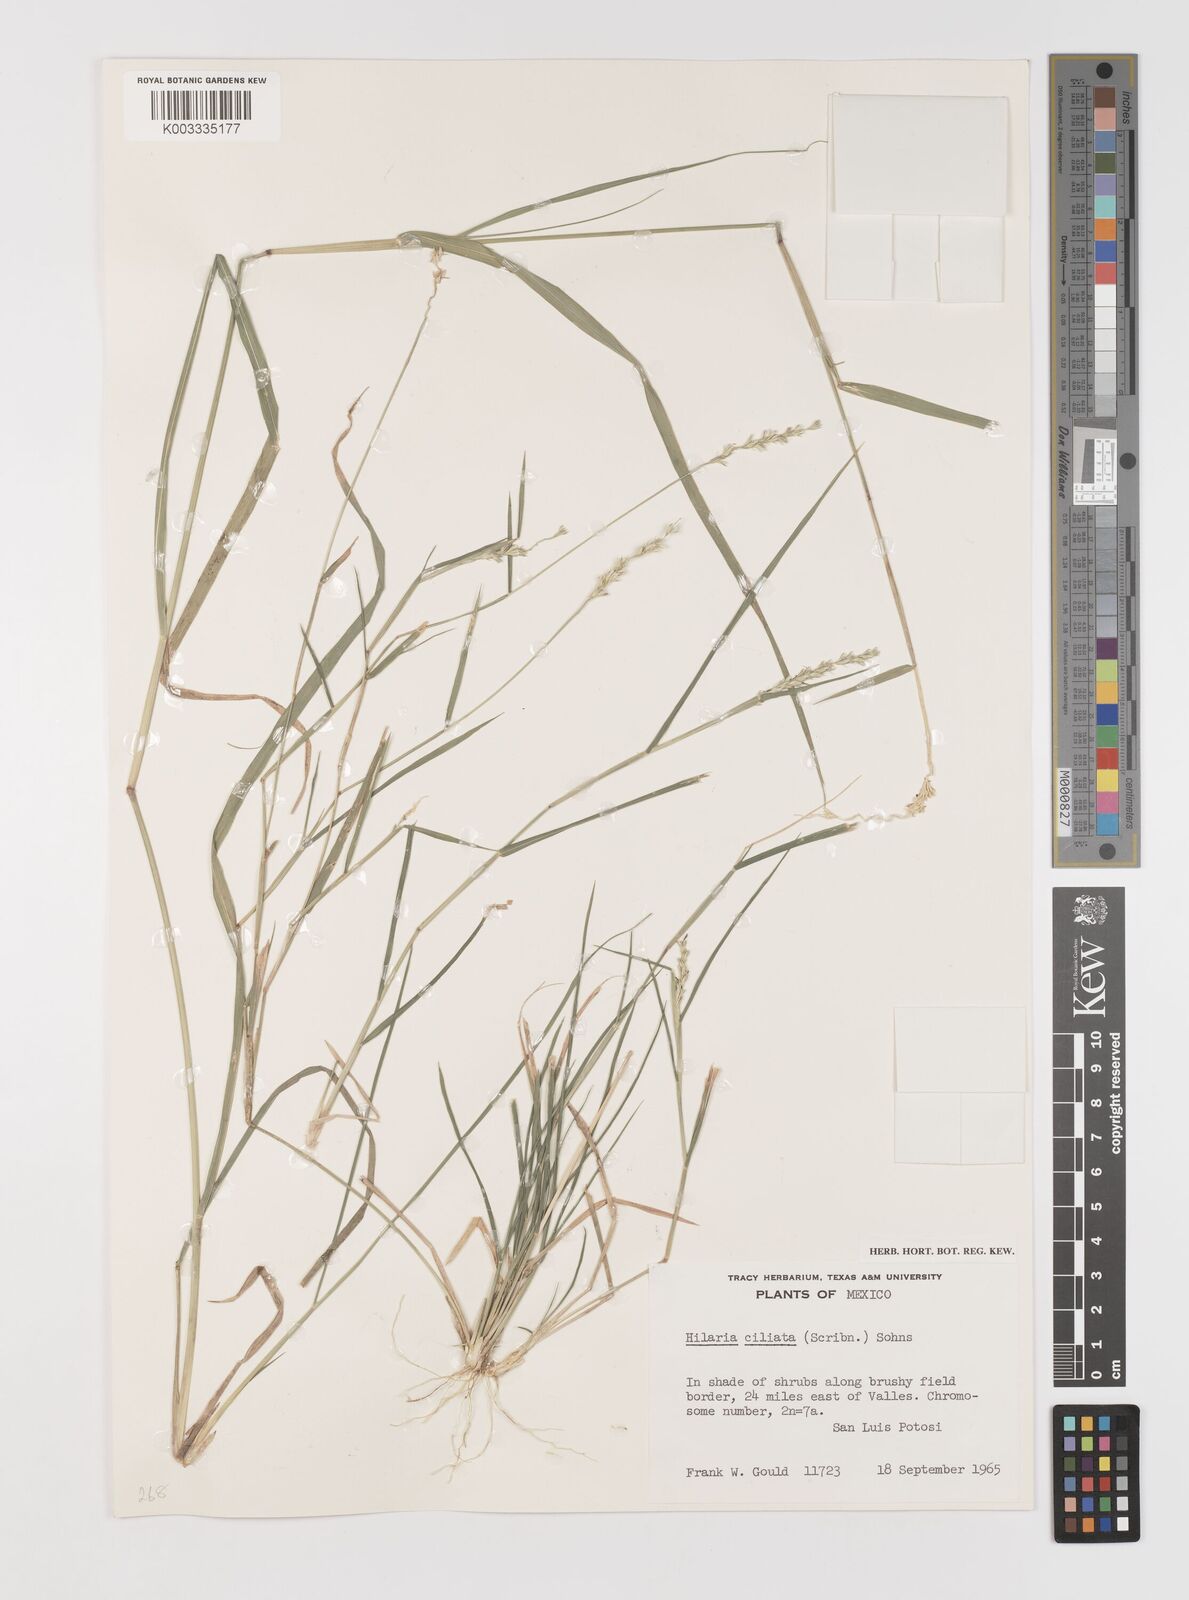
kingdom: Plantae
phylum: Tracheophyta
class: Liliopsida
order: Poales
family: Poaceae
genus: Hilaria
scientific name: Hilaria ciliata
